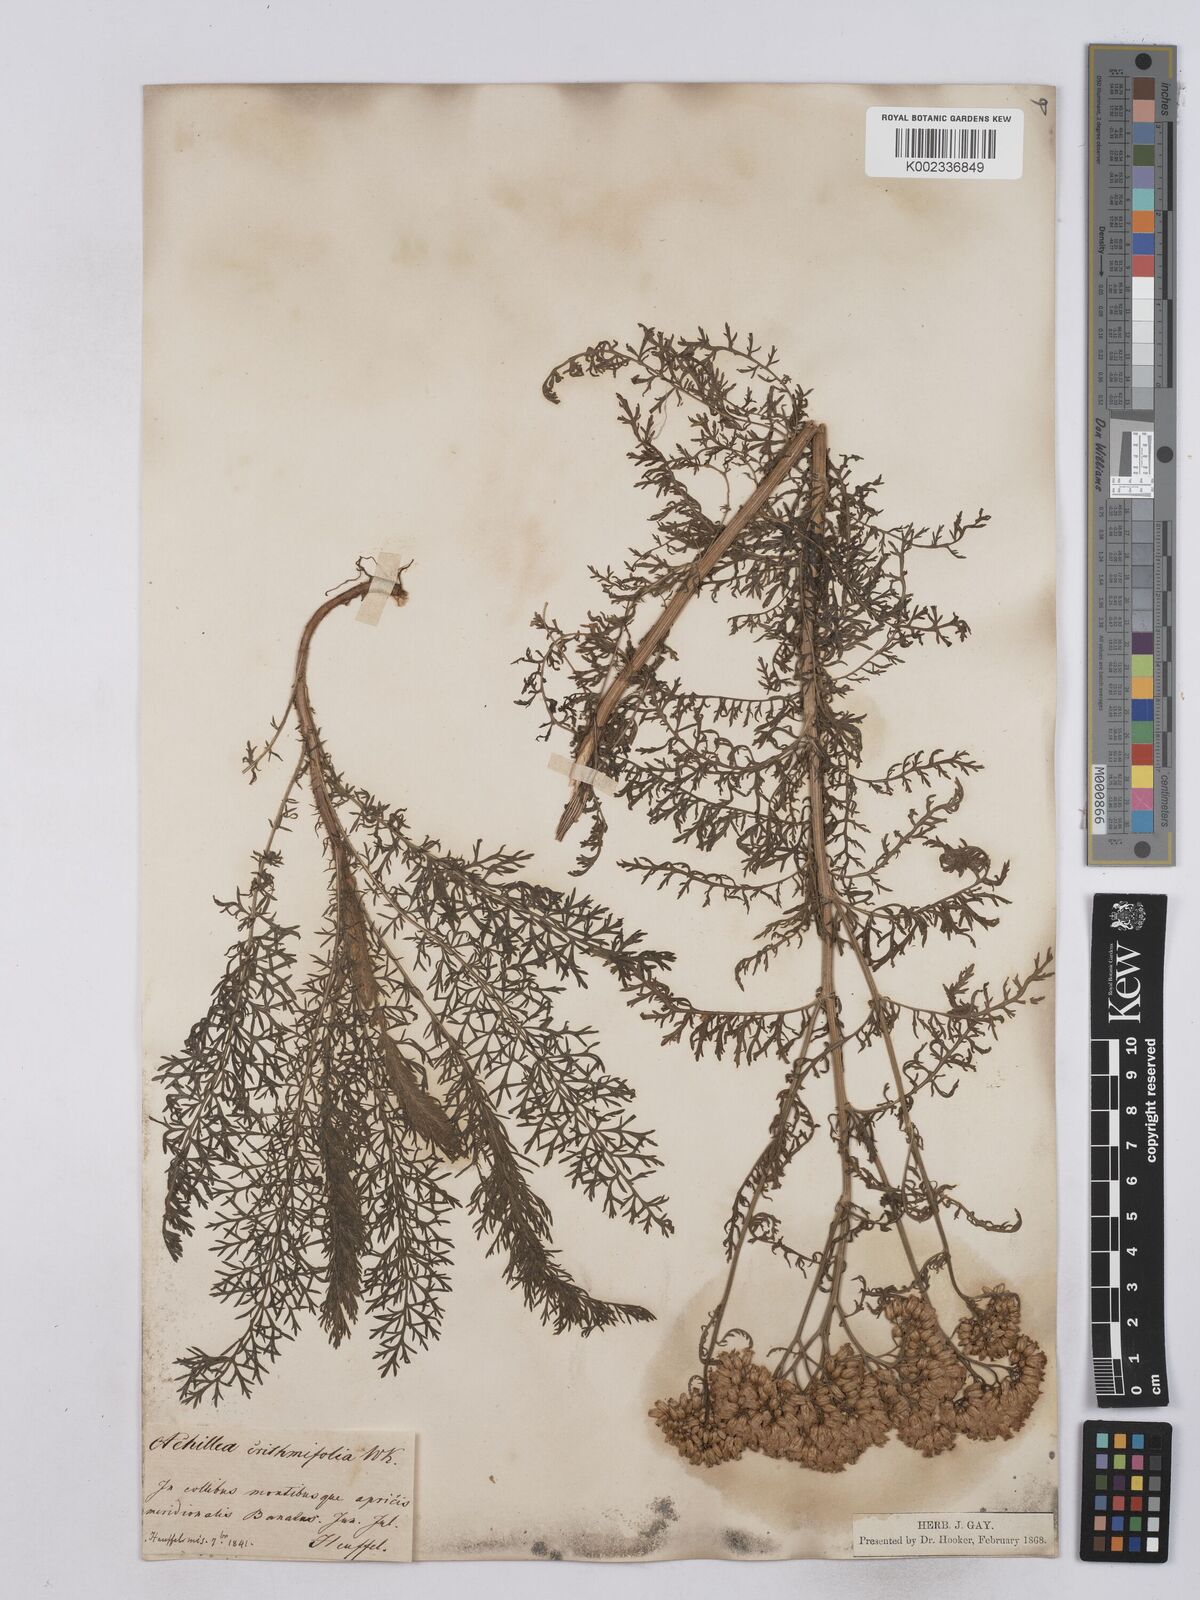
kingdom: Plantae
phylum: Tracheophyta
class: Magnoliopsida
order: Asterales
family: Asteraceae
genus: Achillea
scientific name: Achillea crithmifolia
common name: Yarrow
